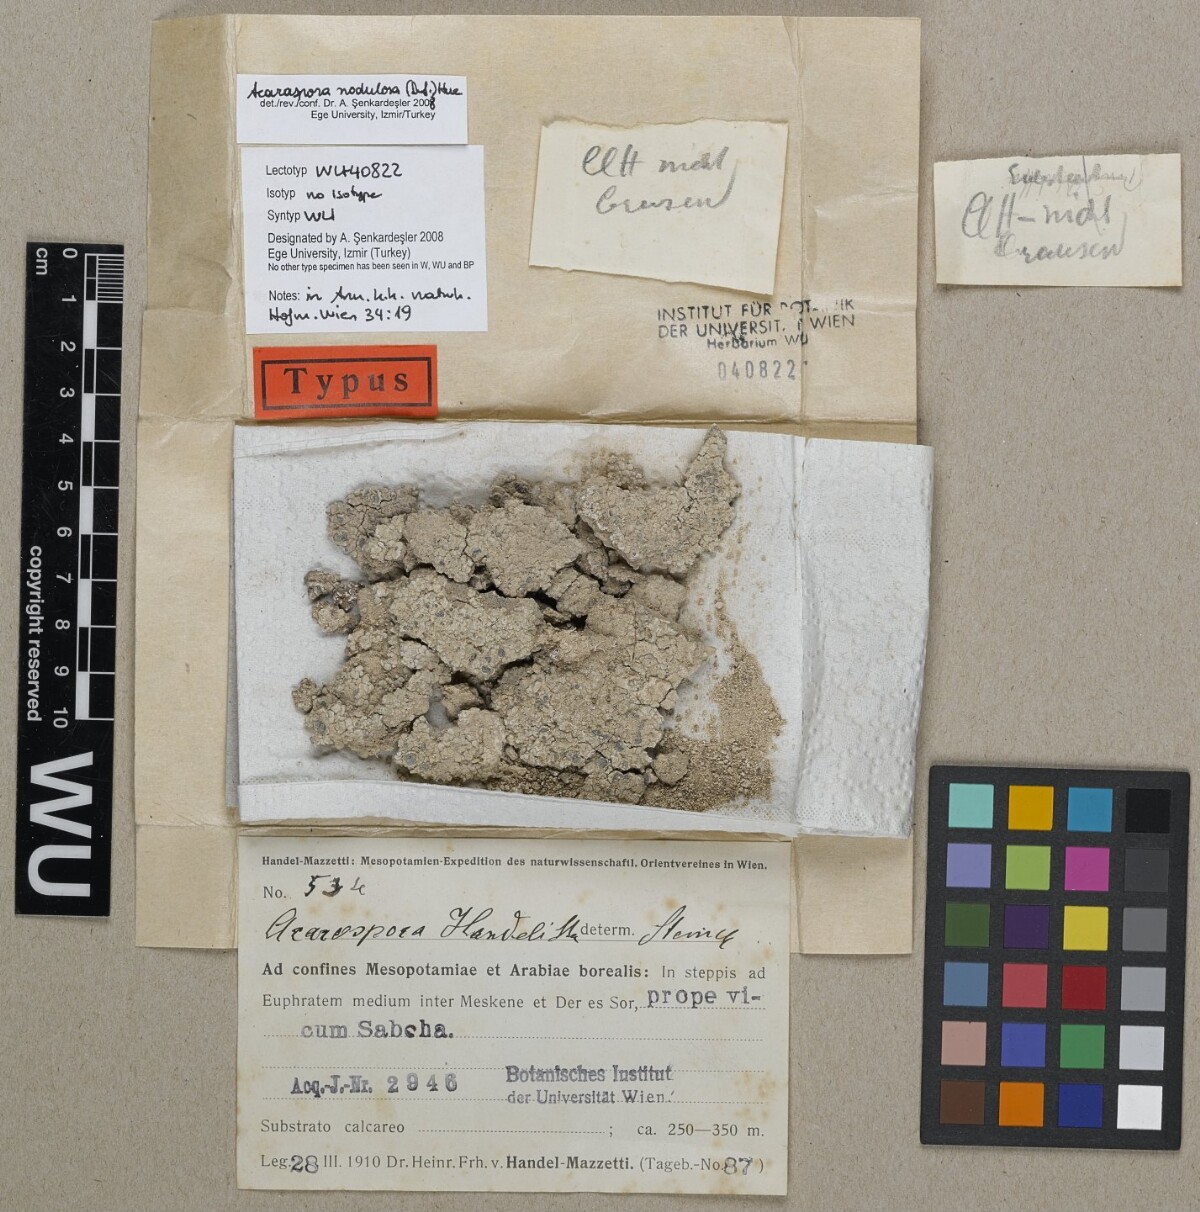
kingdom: Fungi
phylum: Ascomycota
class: Lecanoromycetes
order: Acarosporales
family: Acarosporaceae
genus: Acarospora
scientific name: Acarospora
